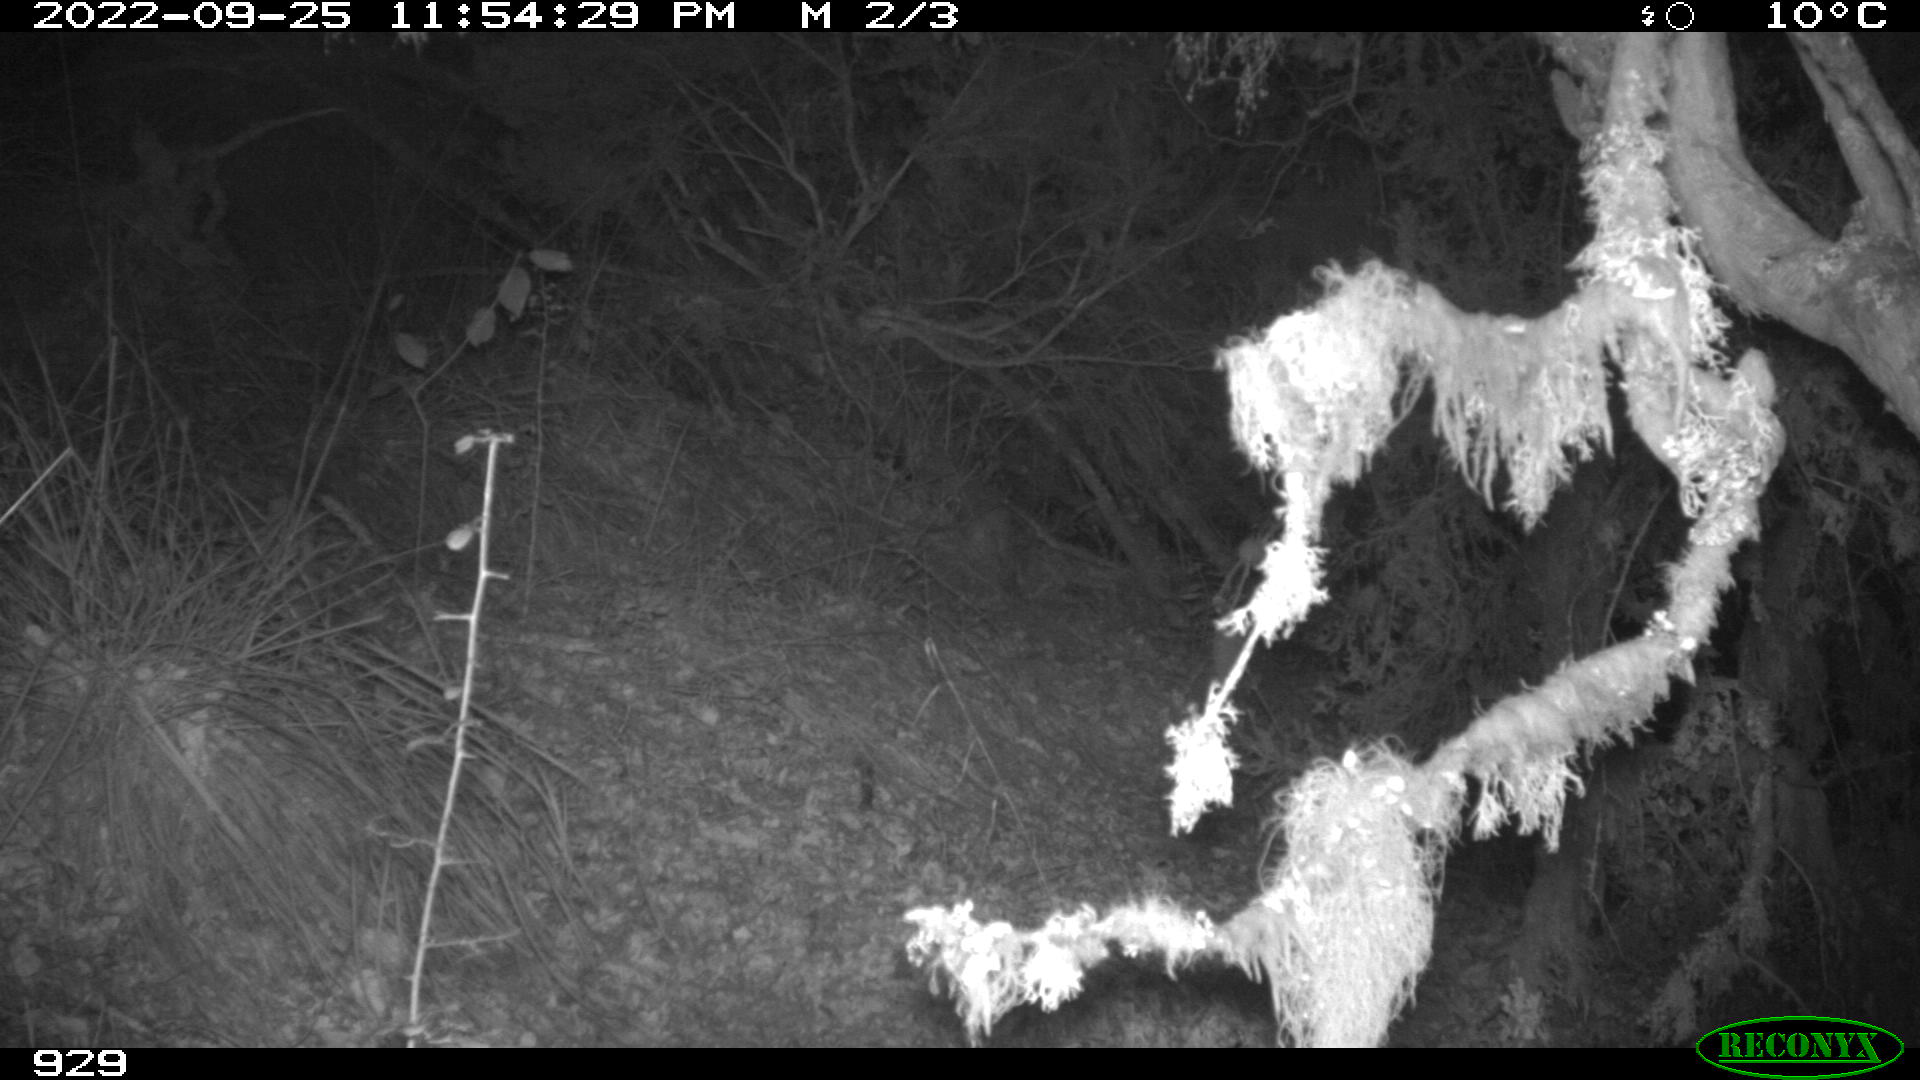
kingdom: Animalia
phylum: Chordata
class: Mammalia
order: Carnivora
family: Canidae
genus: Vulpes
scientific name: Vulpes vulpes
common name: Red fox
